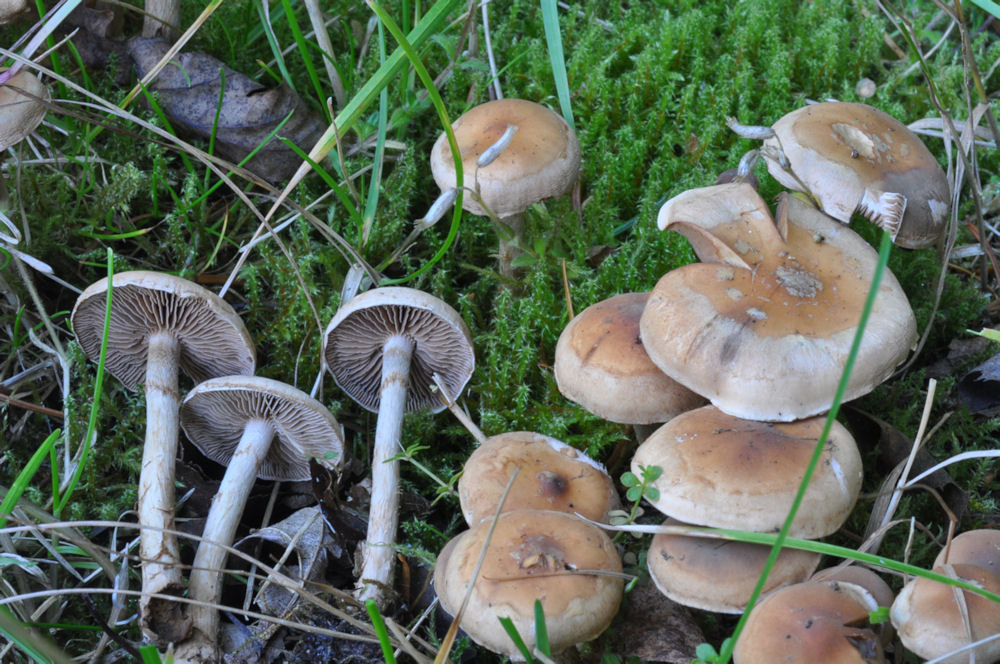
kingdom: Fungi
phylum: Basidiomycota
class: Agaricomycetes
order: Agaricales
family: Hymenogastraceae
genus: Hebeloma
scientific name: Hebeloma mesophaeum
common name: lerbrun tåreblad
